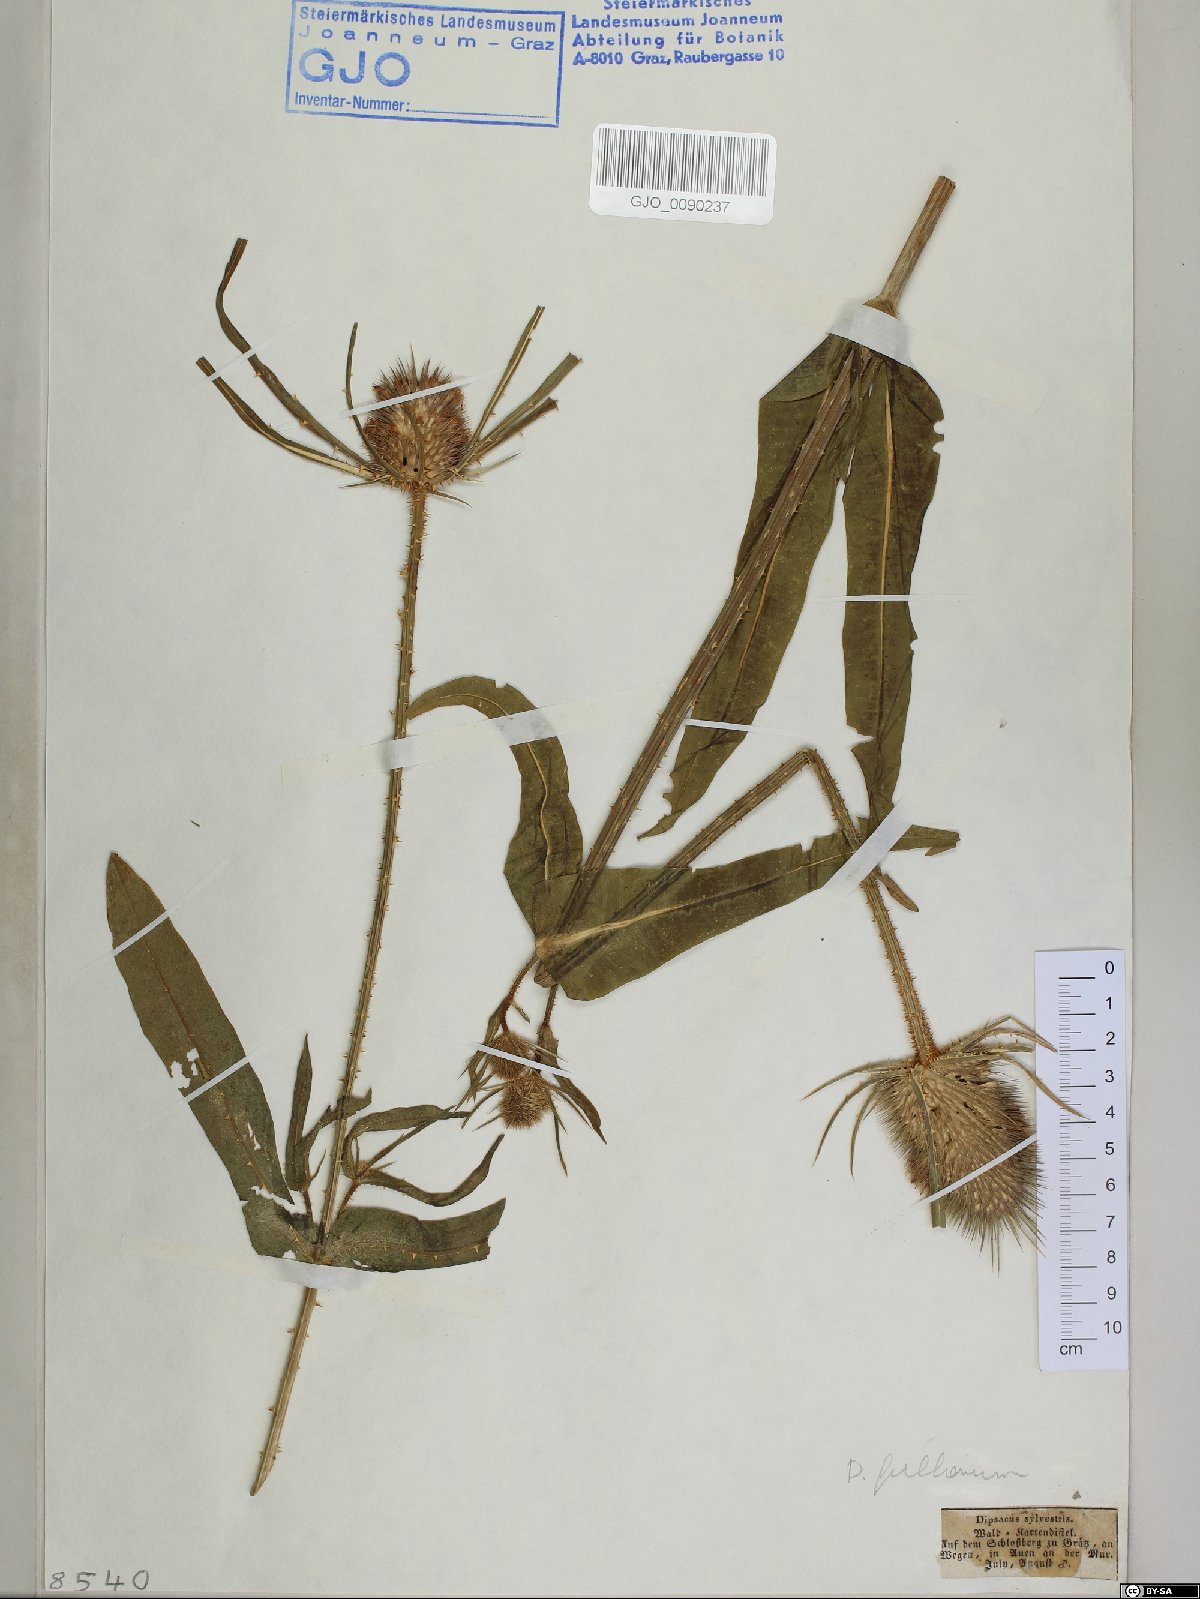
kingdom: Plantae
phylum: Tracheophyta
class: Magnoliopsida
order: Dipsacales
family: Caprifoliaceae
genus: Dipsacus
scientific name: Dipsacus fullonum
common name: Teasel
